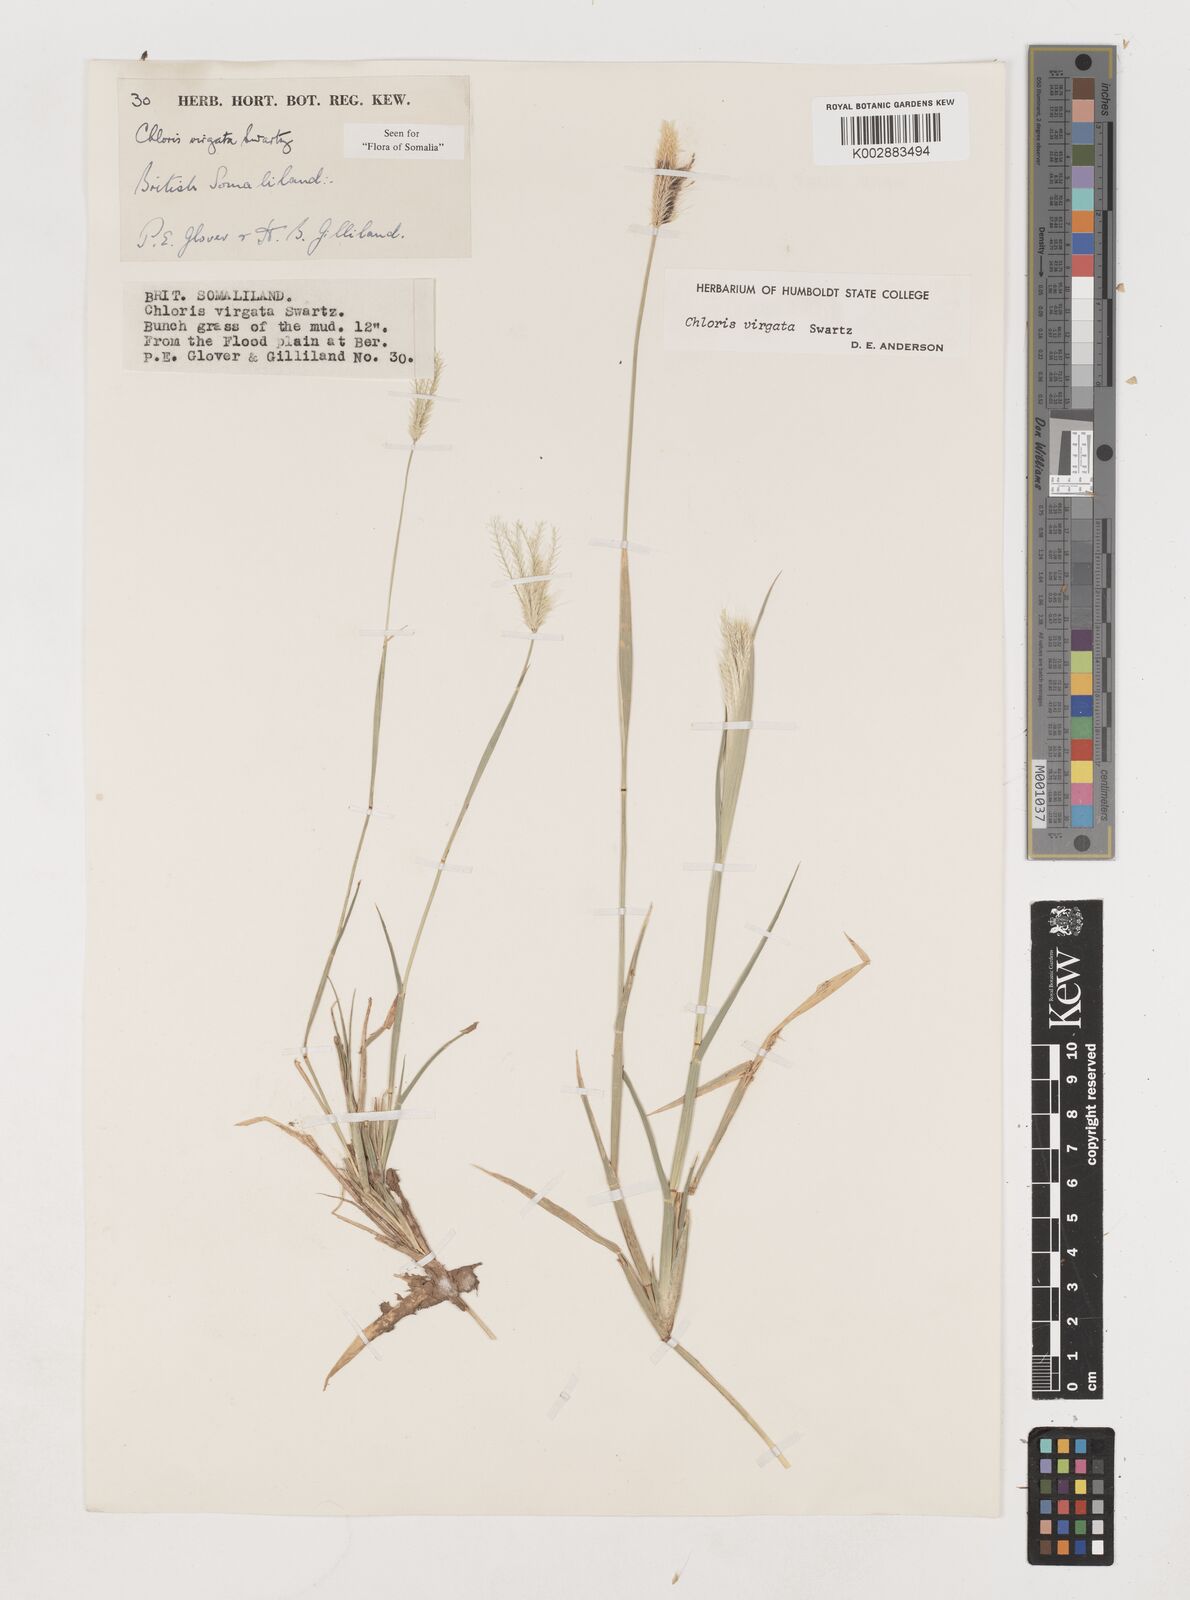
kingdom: Plantae
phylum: Tracheophyta
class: Liliopsida
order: Poales
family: Poaceae
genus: Chloris
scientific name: Chloris virgata
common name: Feathery rhodes-grass
